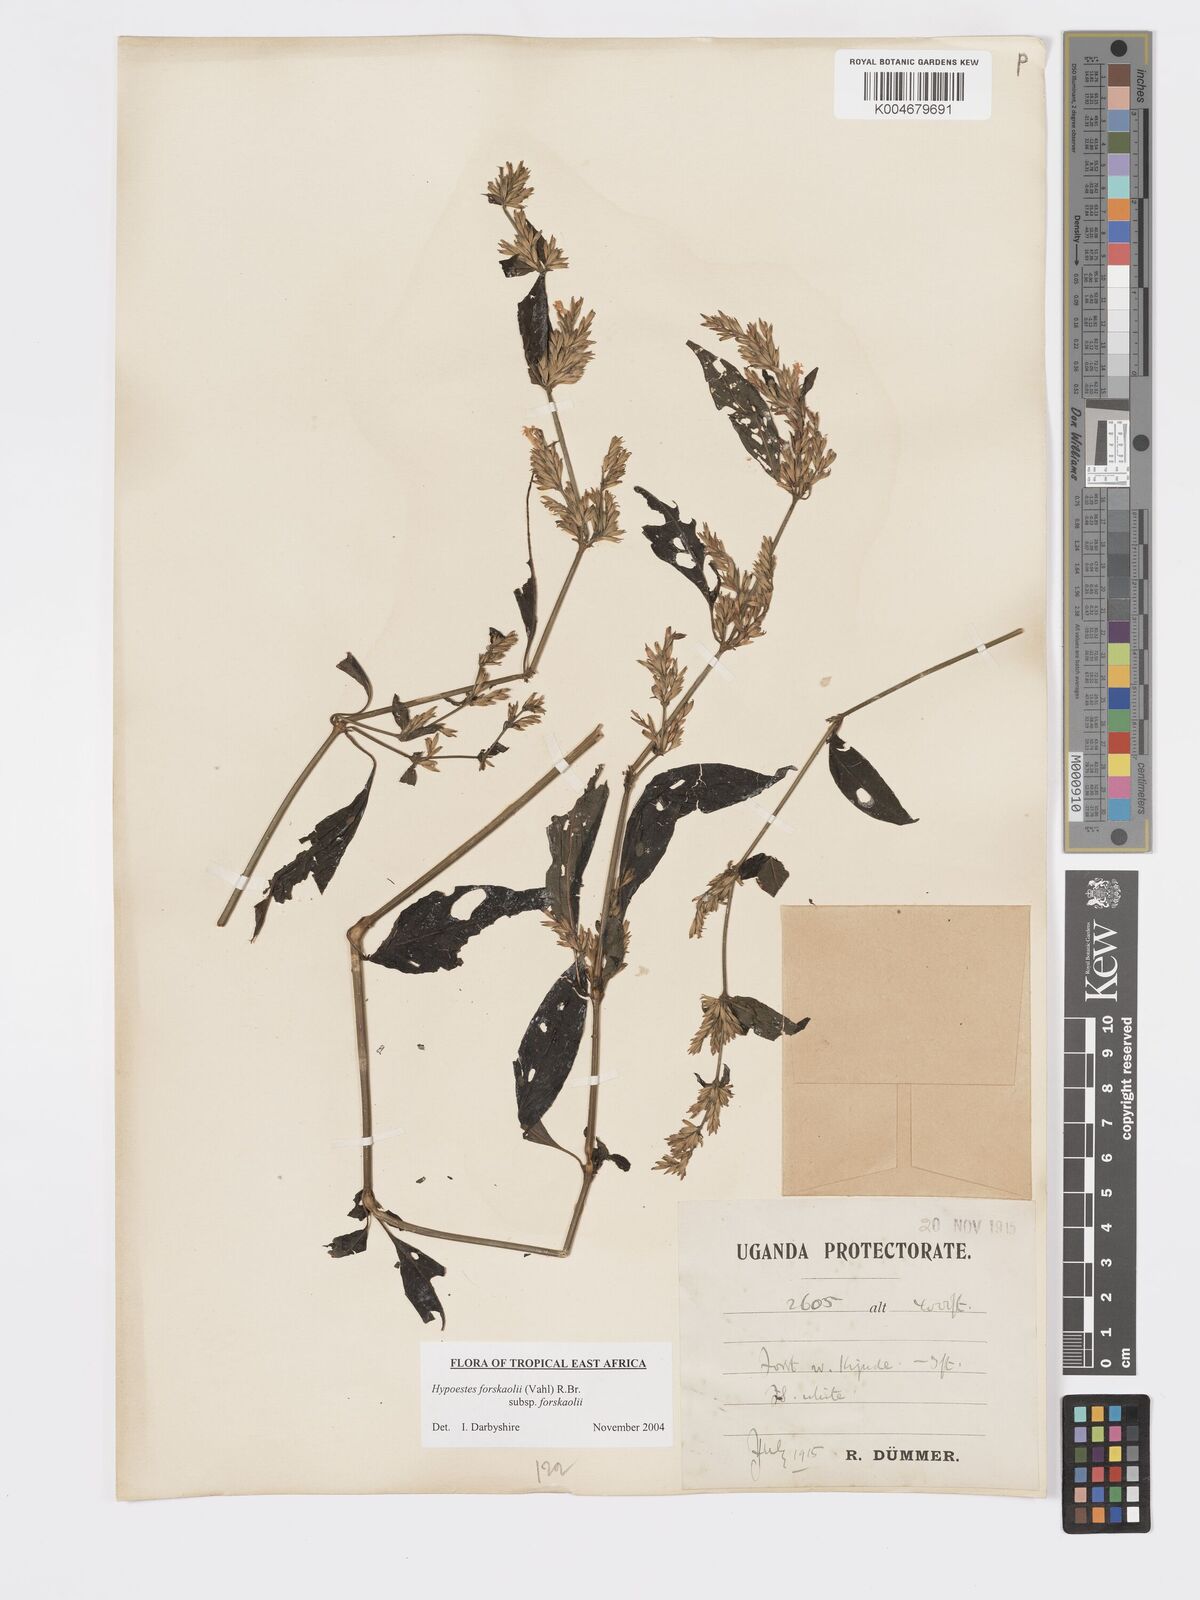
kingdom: Plantae
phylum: Tracheophyta
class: Magnoliopsida
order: Lamiales
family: Acanthaceae
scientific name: Acanthaceae
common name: Acanthaceae
